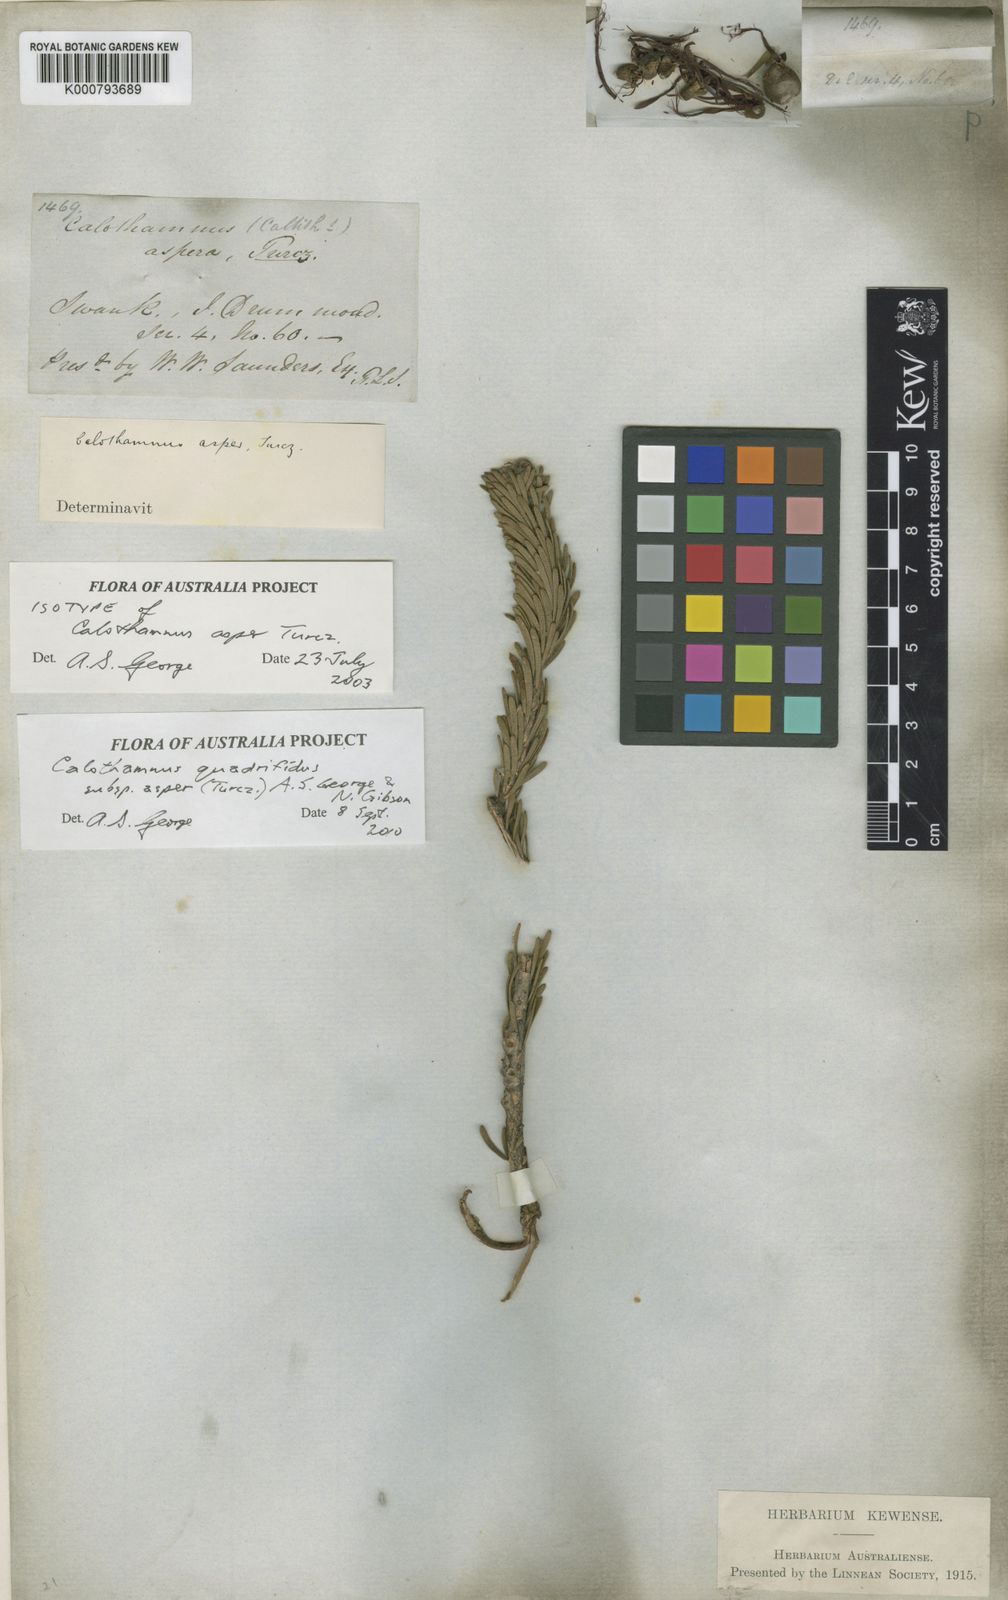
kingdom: Plantae
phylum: Tracheophyta
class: Magnoliopsida
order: Myrtales
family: Myrtaceae
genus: Melaleuca
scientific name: Melaleuca quadrifida
